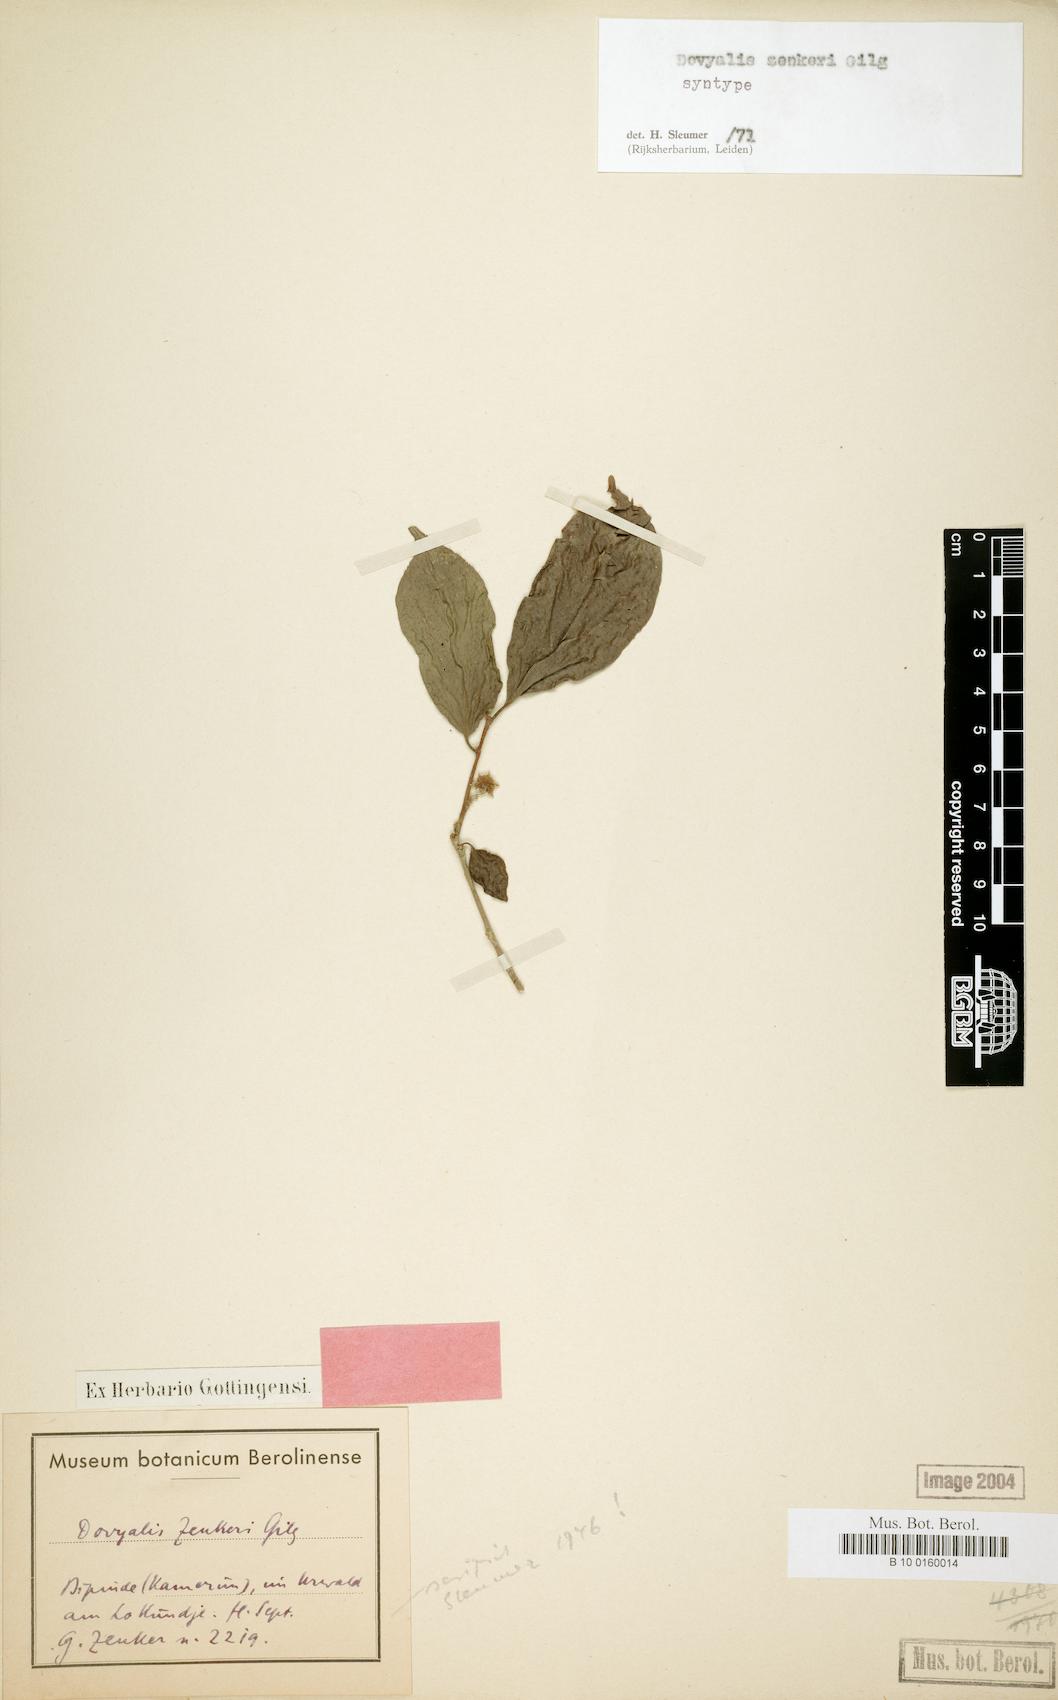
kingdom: Plantae
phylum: Tracheophyta
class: Magnoliopsida
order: Malpighiales
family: Salicaceae
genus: Dovyalis
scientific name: Dovyalis zenkeri
